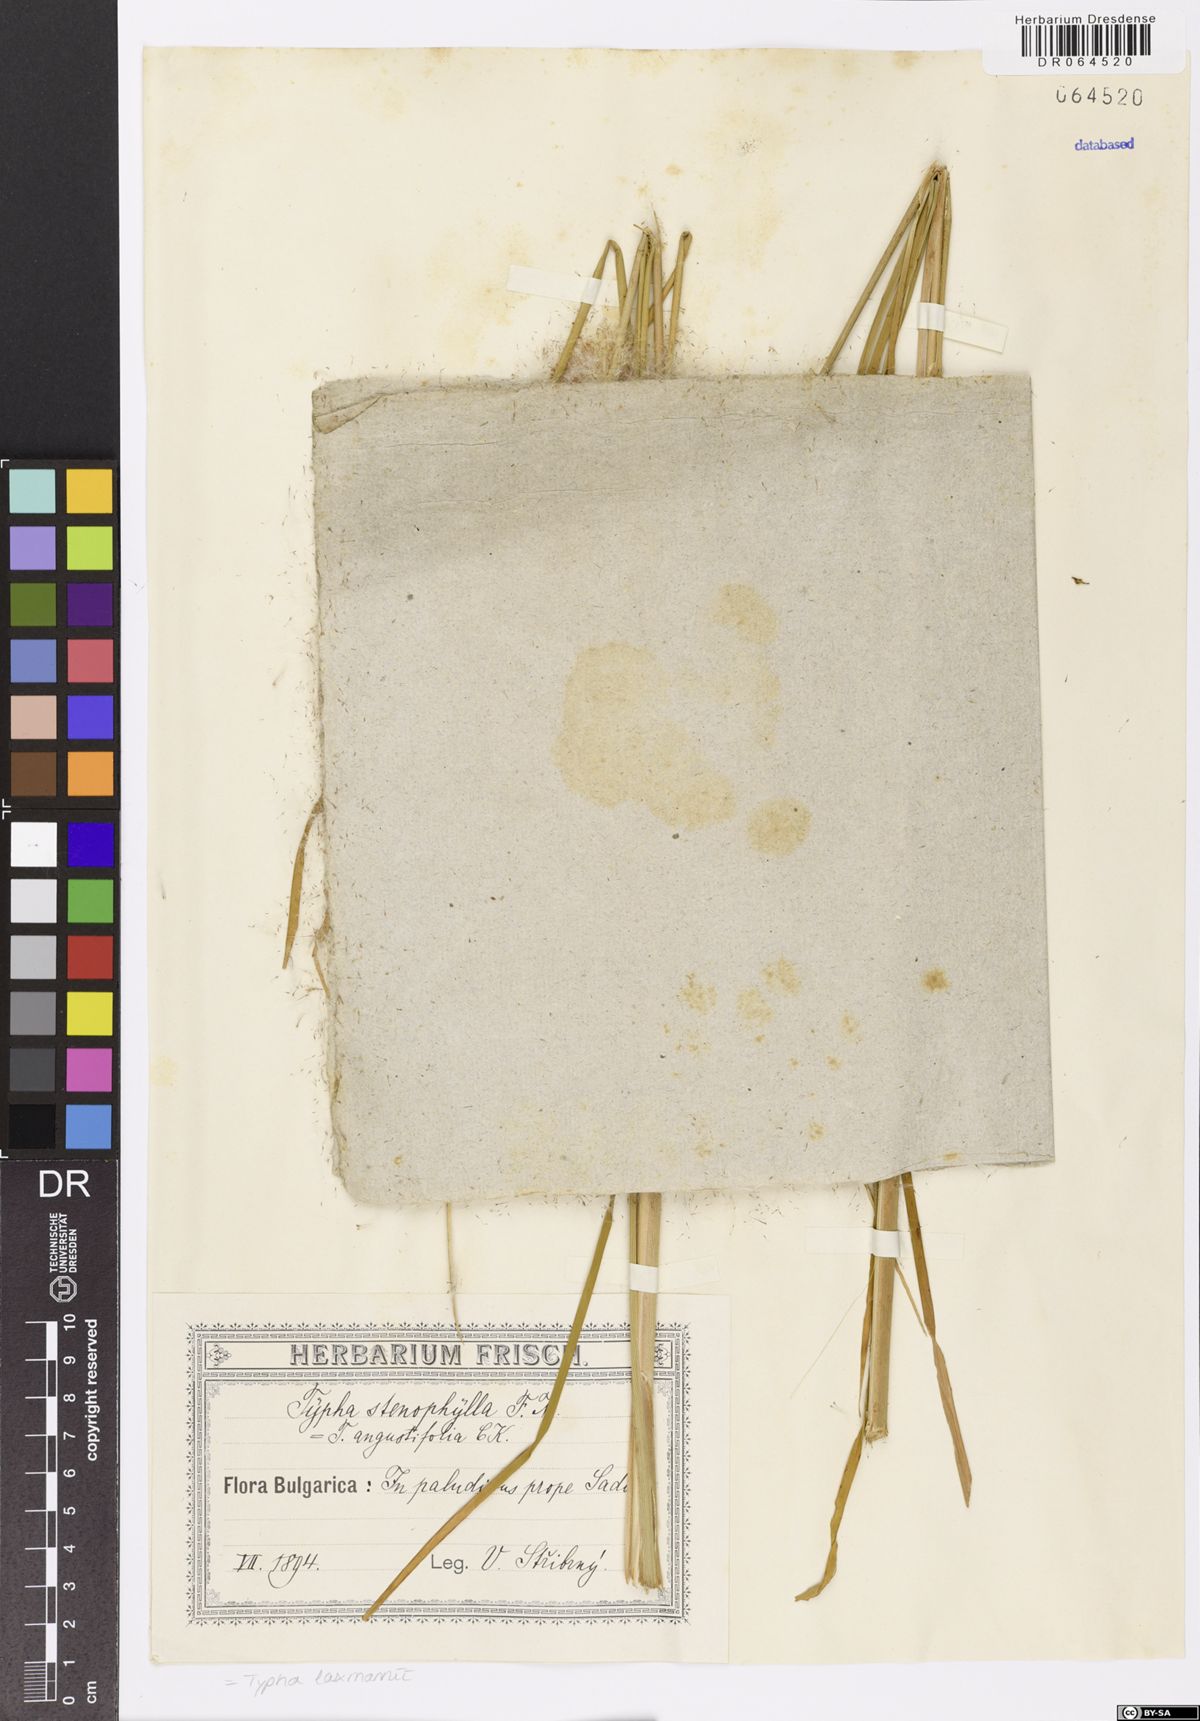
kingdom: Plantae
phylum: Tracheophyta
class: Liliopsida
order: Poales
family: Typhaceae
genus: Typha
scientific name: Typha laxmannii
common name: Laxman’s bulrush
